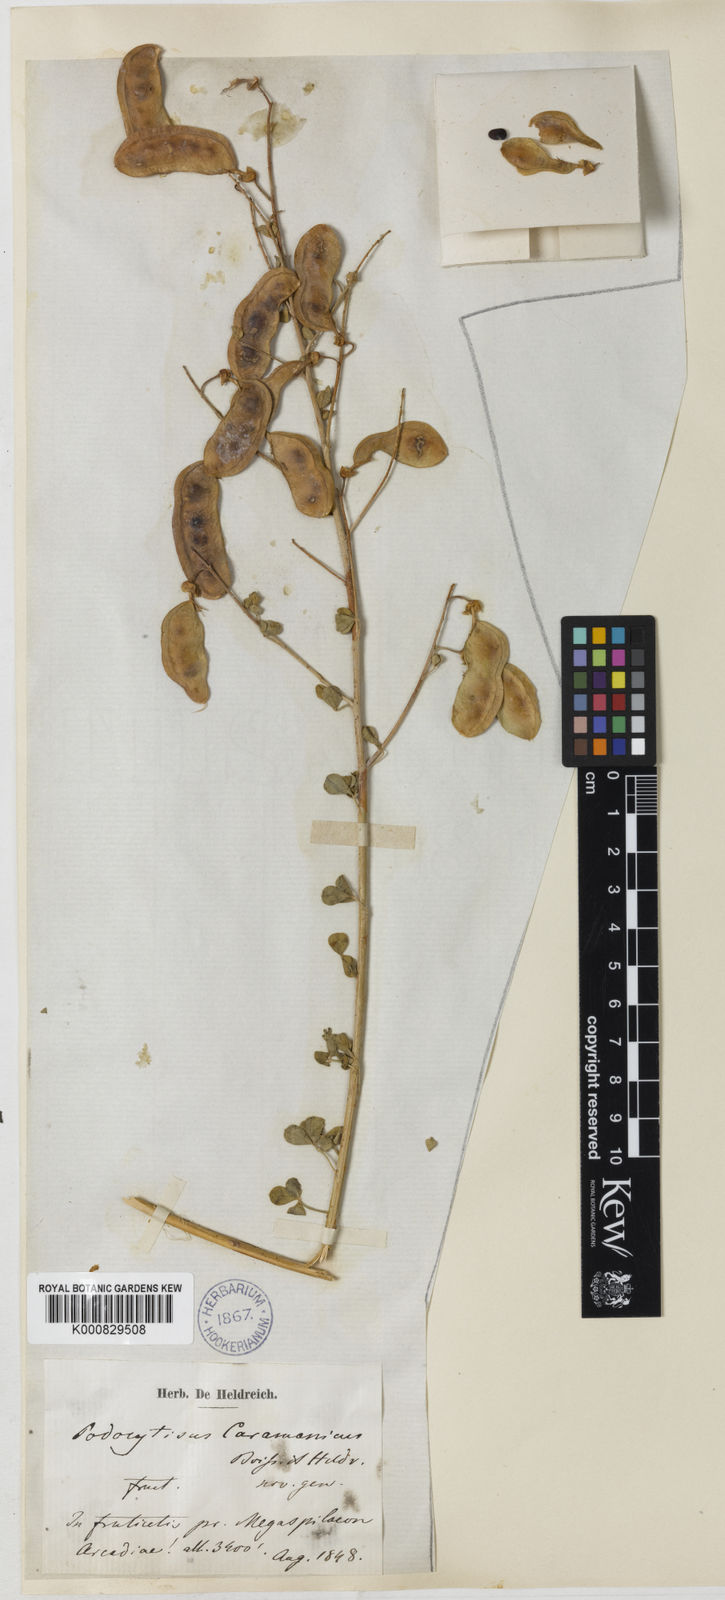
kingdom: Plantae
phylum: Tracheophyta
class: Magnoliopsida
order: Fabales
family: Fabaceae
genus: Podocytisus
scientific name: Podocytisus caramanicus
